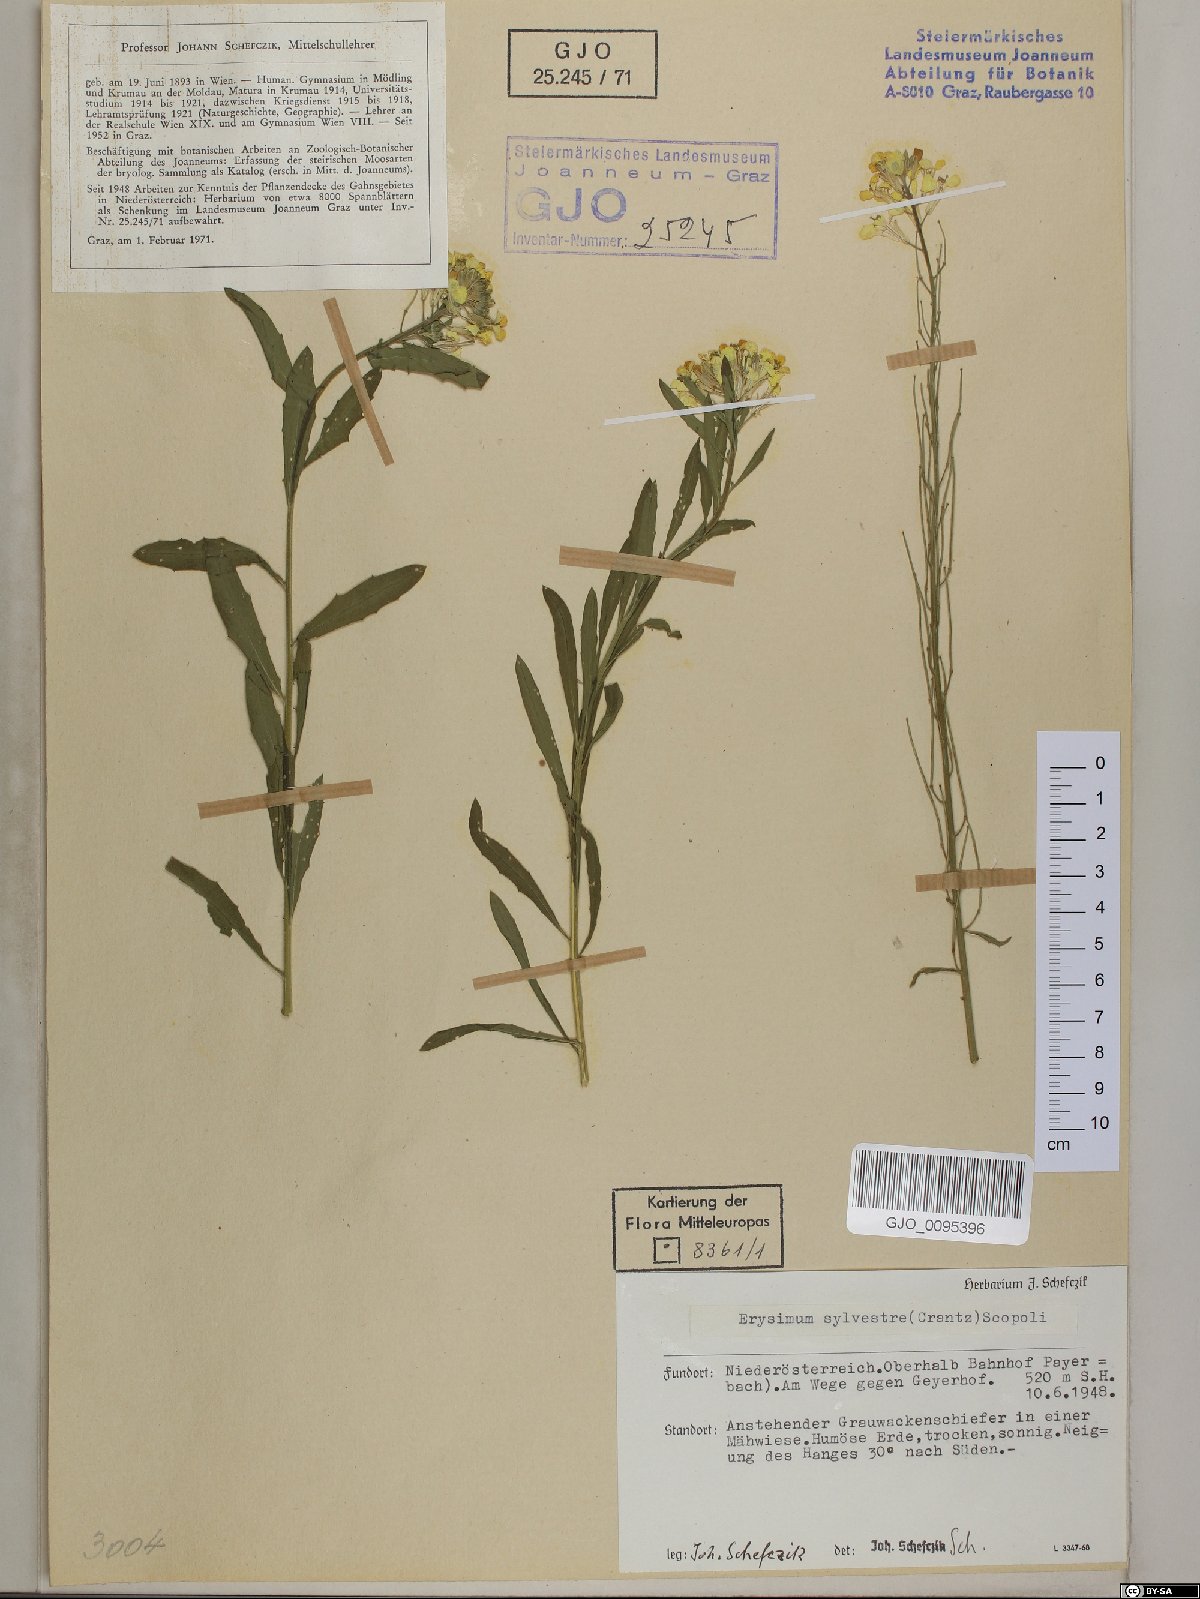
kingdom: Plantae
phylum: Tracheophyta
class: Magnoliopsida
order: Brassicales
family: Brassicaceae
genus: Erysimum
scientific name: Erysimum sylvestre
